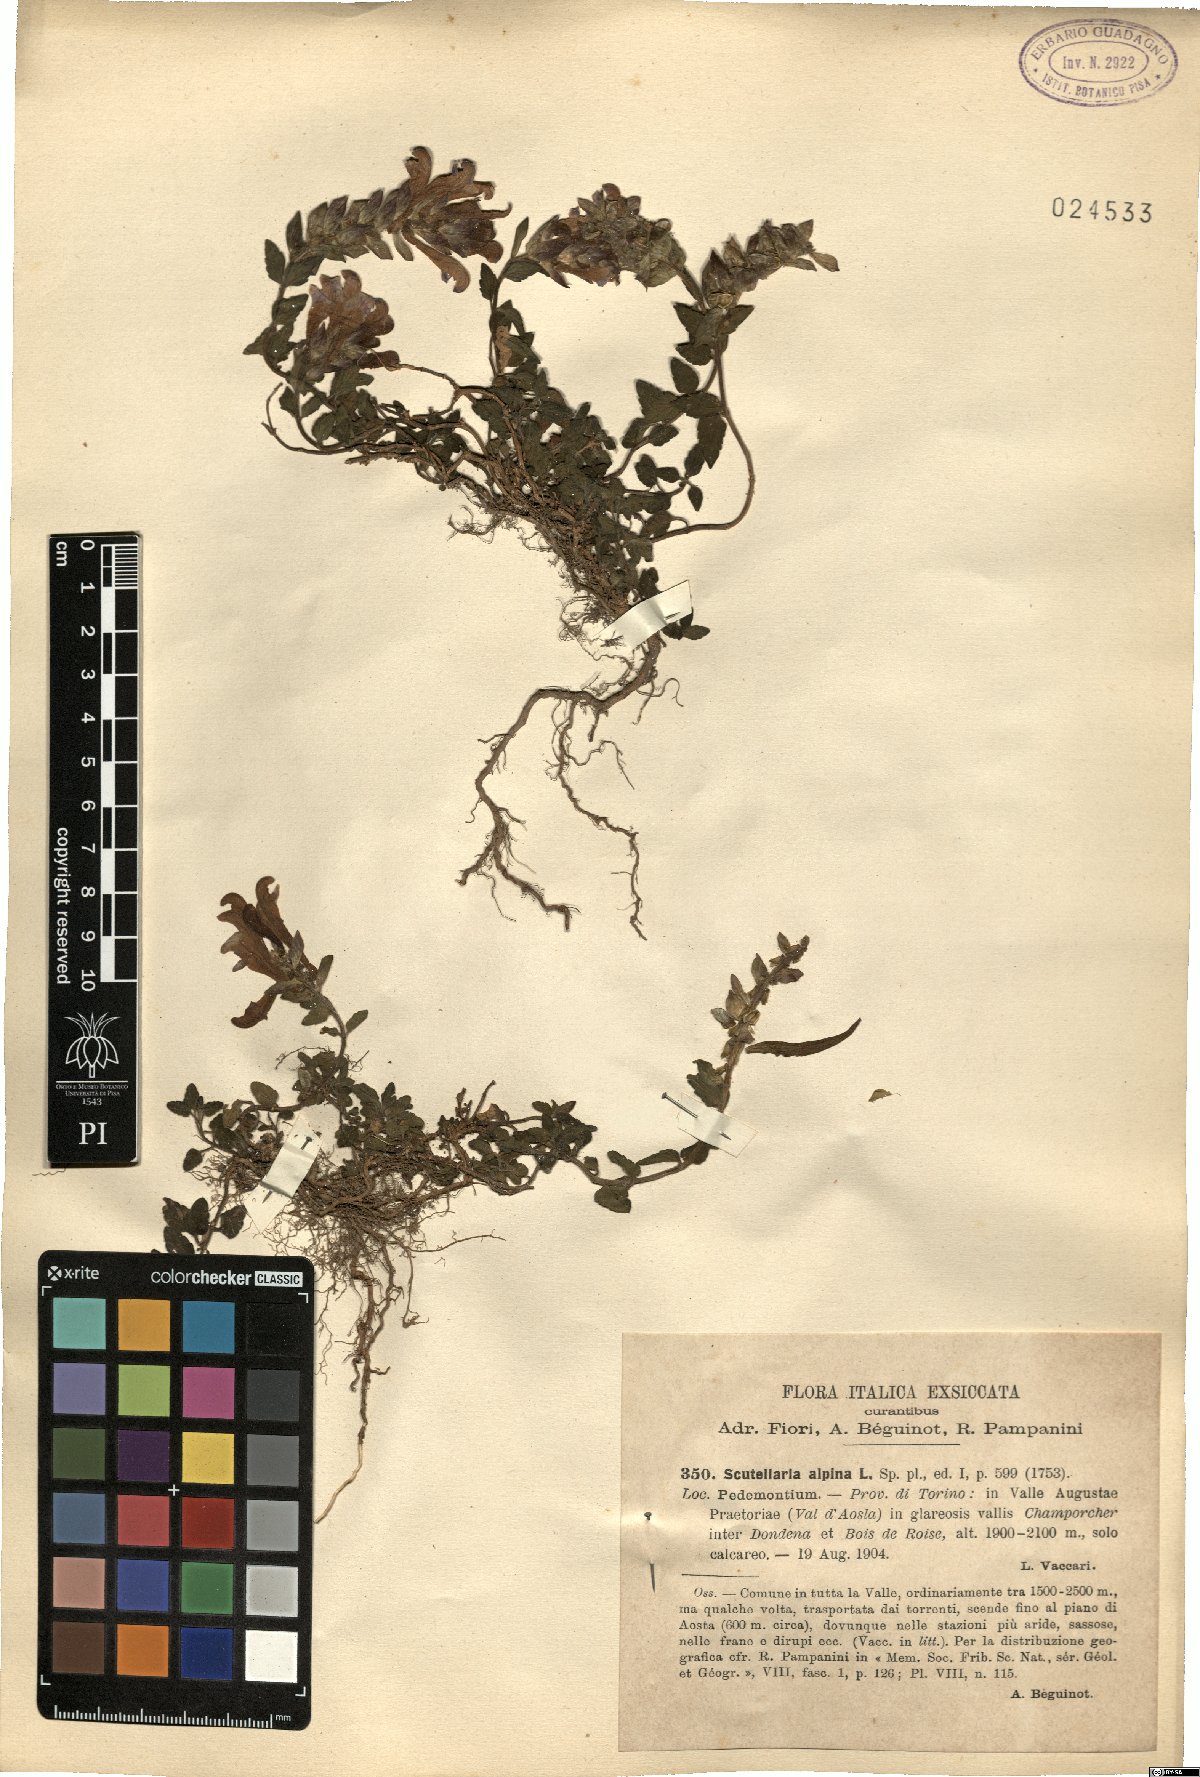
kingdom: Plantae
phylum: Tracheophyta
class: Magnoliopsida
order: Lamiales
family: Lamiaceae
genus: Scutellaria
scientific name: Scutellaria alpina
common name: Alpine scullcap
